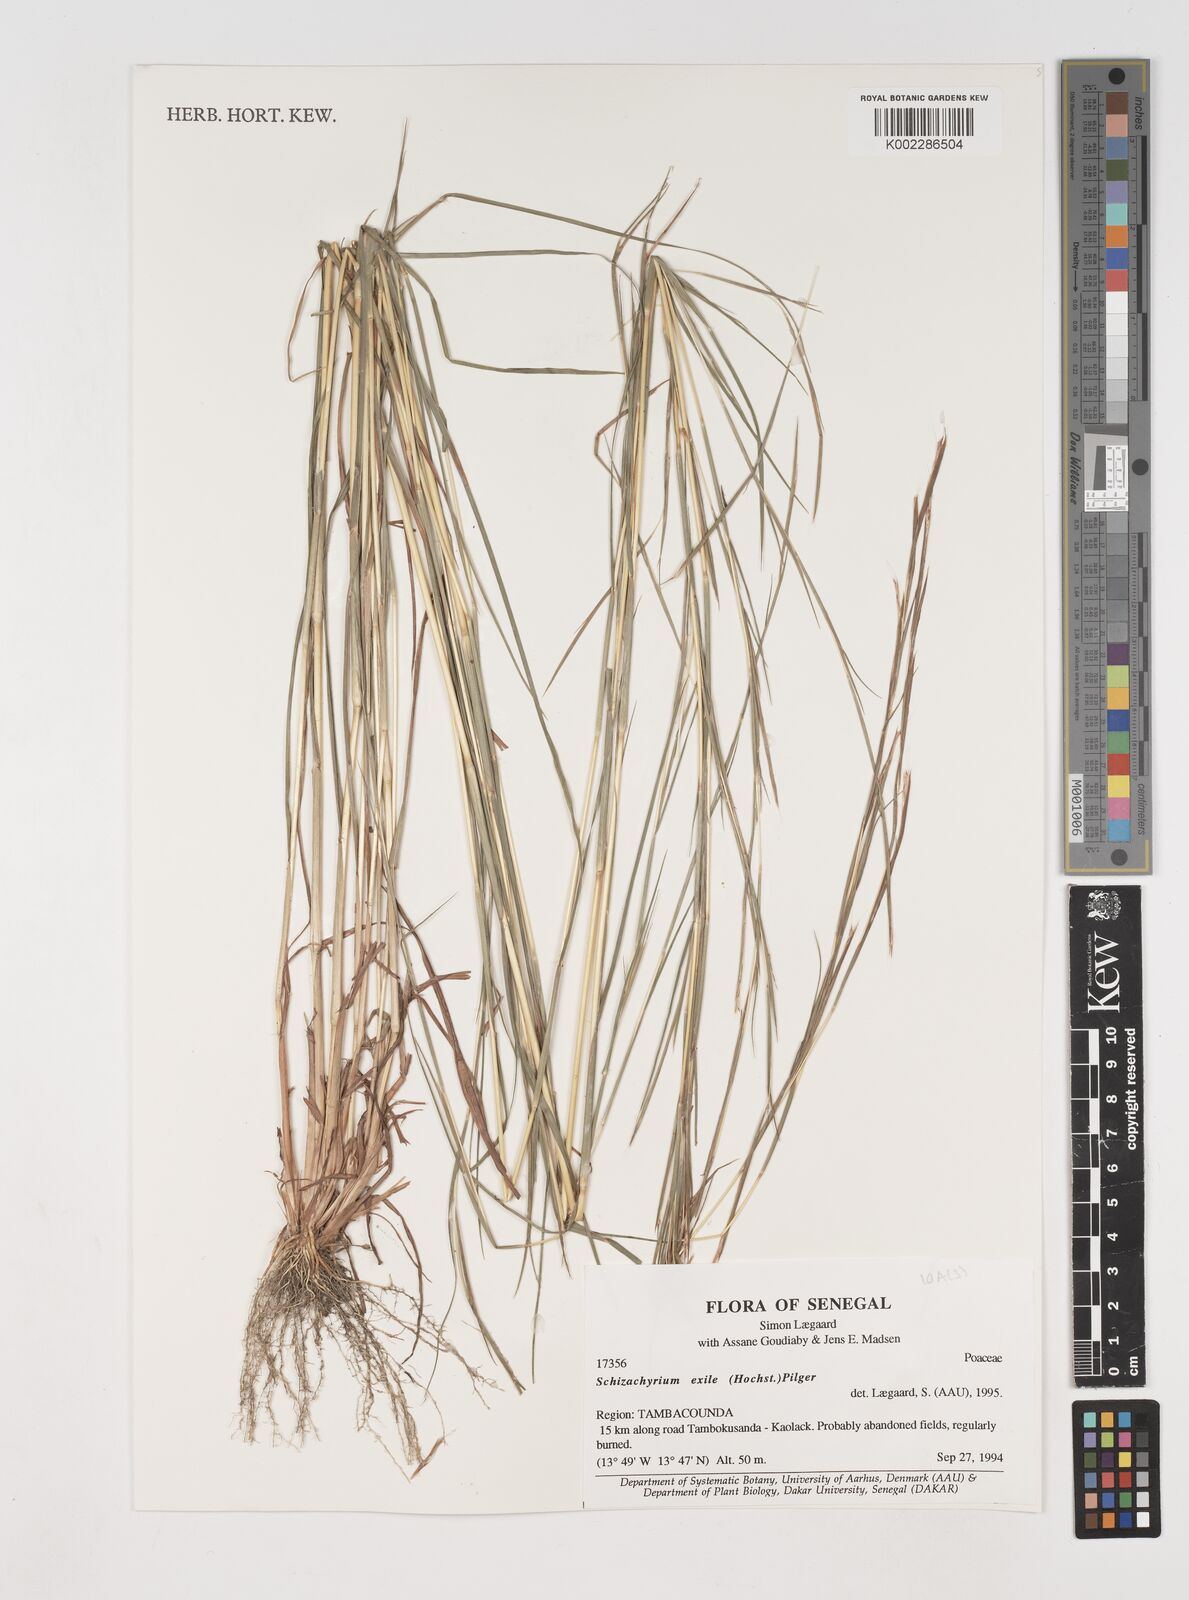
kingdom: Plantae
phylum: Tracheophyta
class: Liliopsida
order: Poales
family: Poaceae
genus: Schizachyrium
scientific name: Schizachyrium exile
